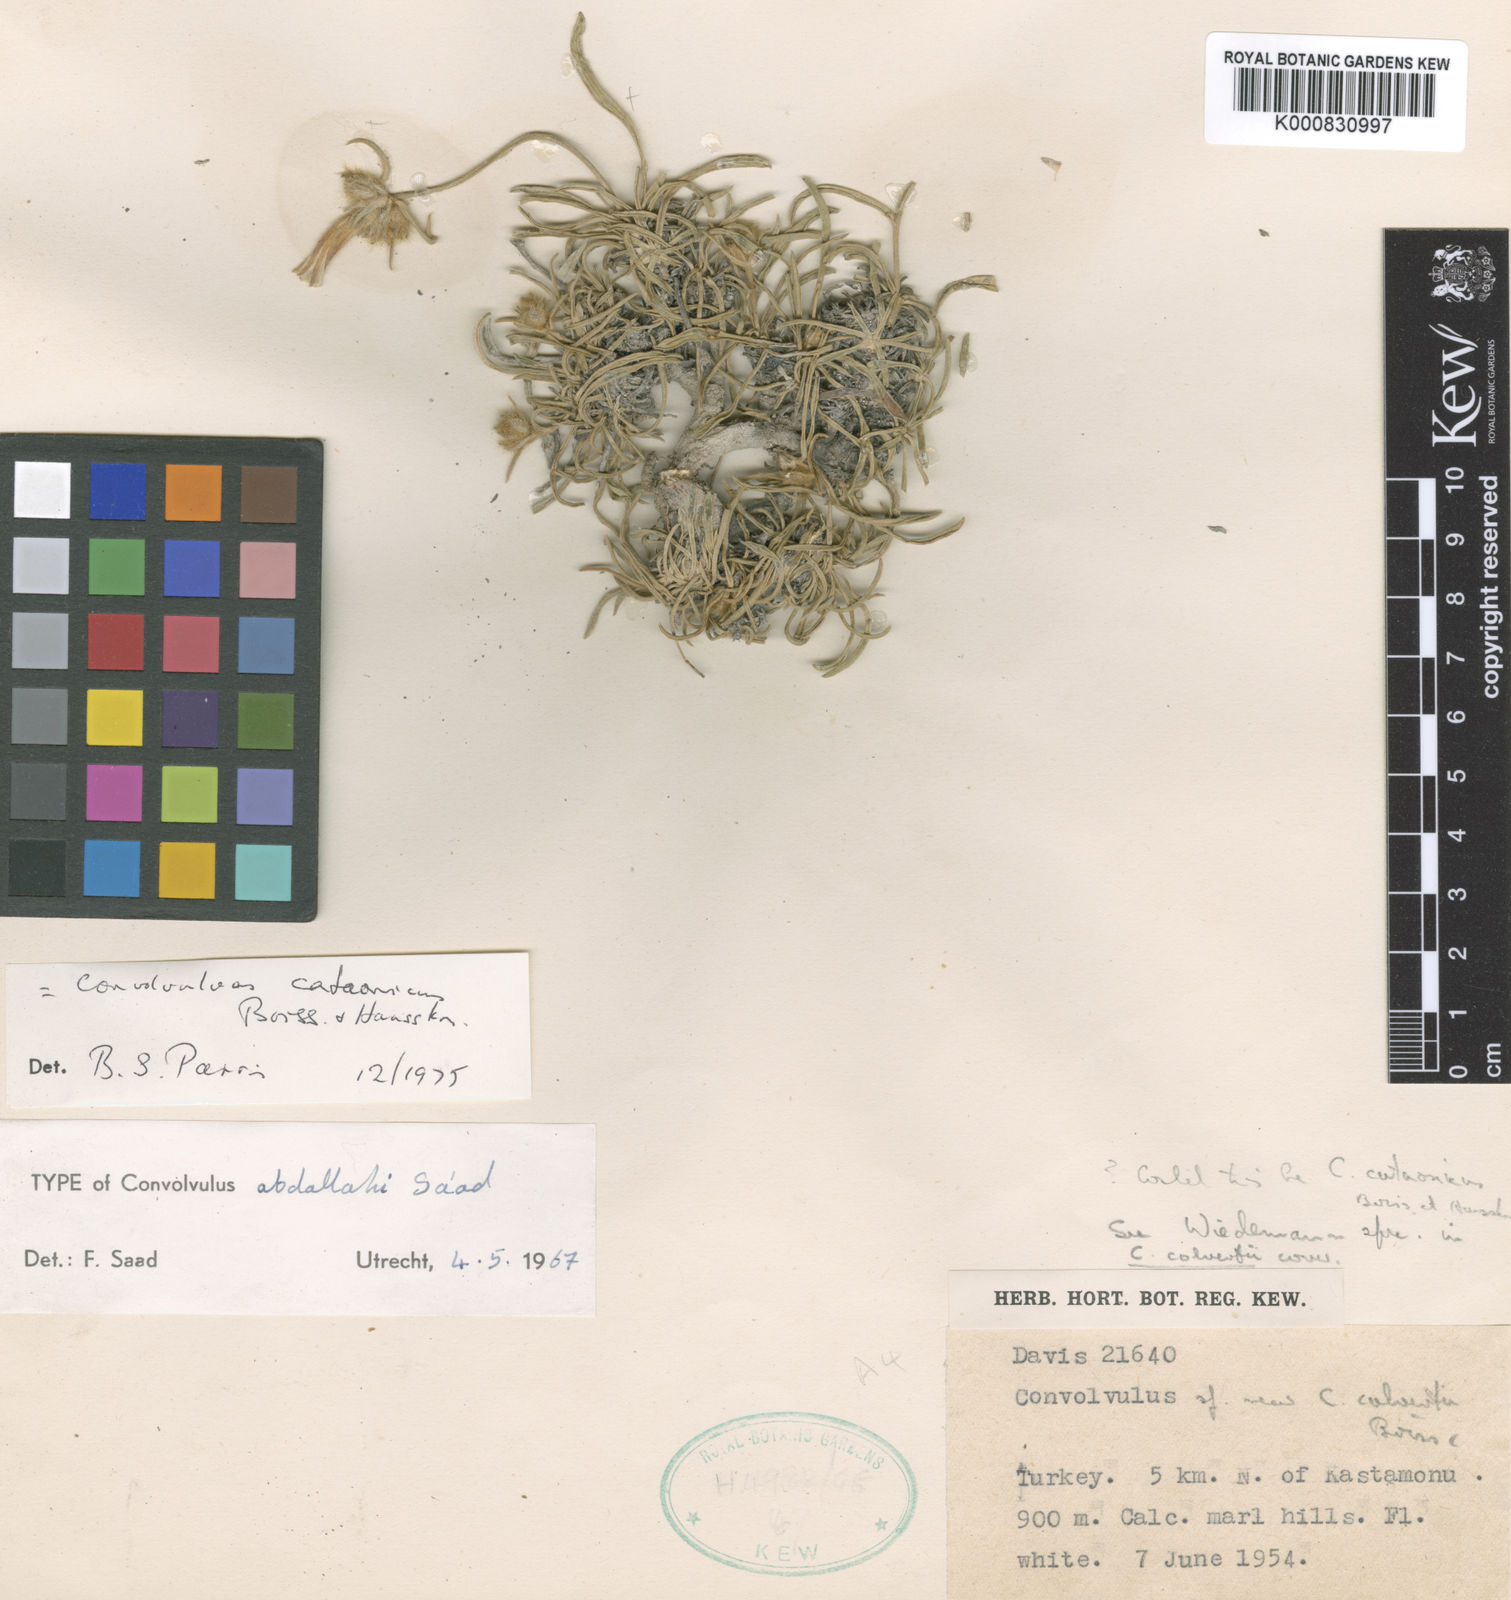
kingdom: Plantae
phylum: Tracheophyta
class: Magnoliopsida
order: Solanales
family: Convolvulaceae
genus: Convolvulus
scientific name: Convolvulus cataonicus
